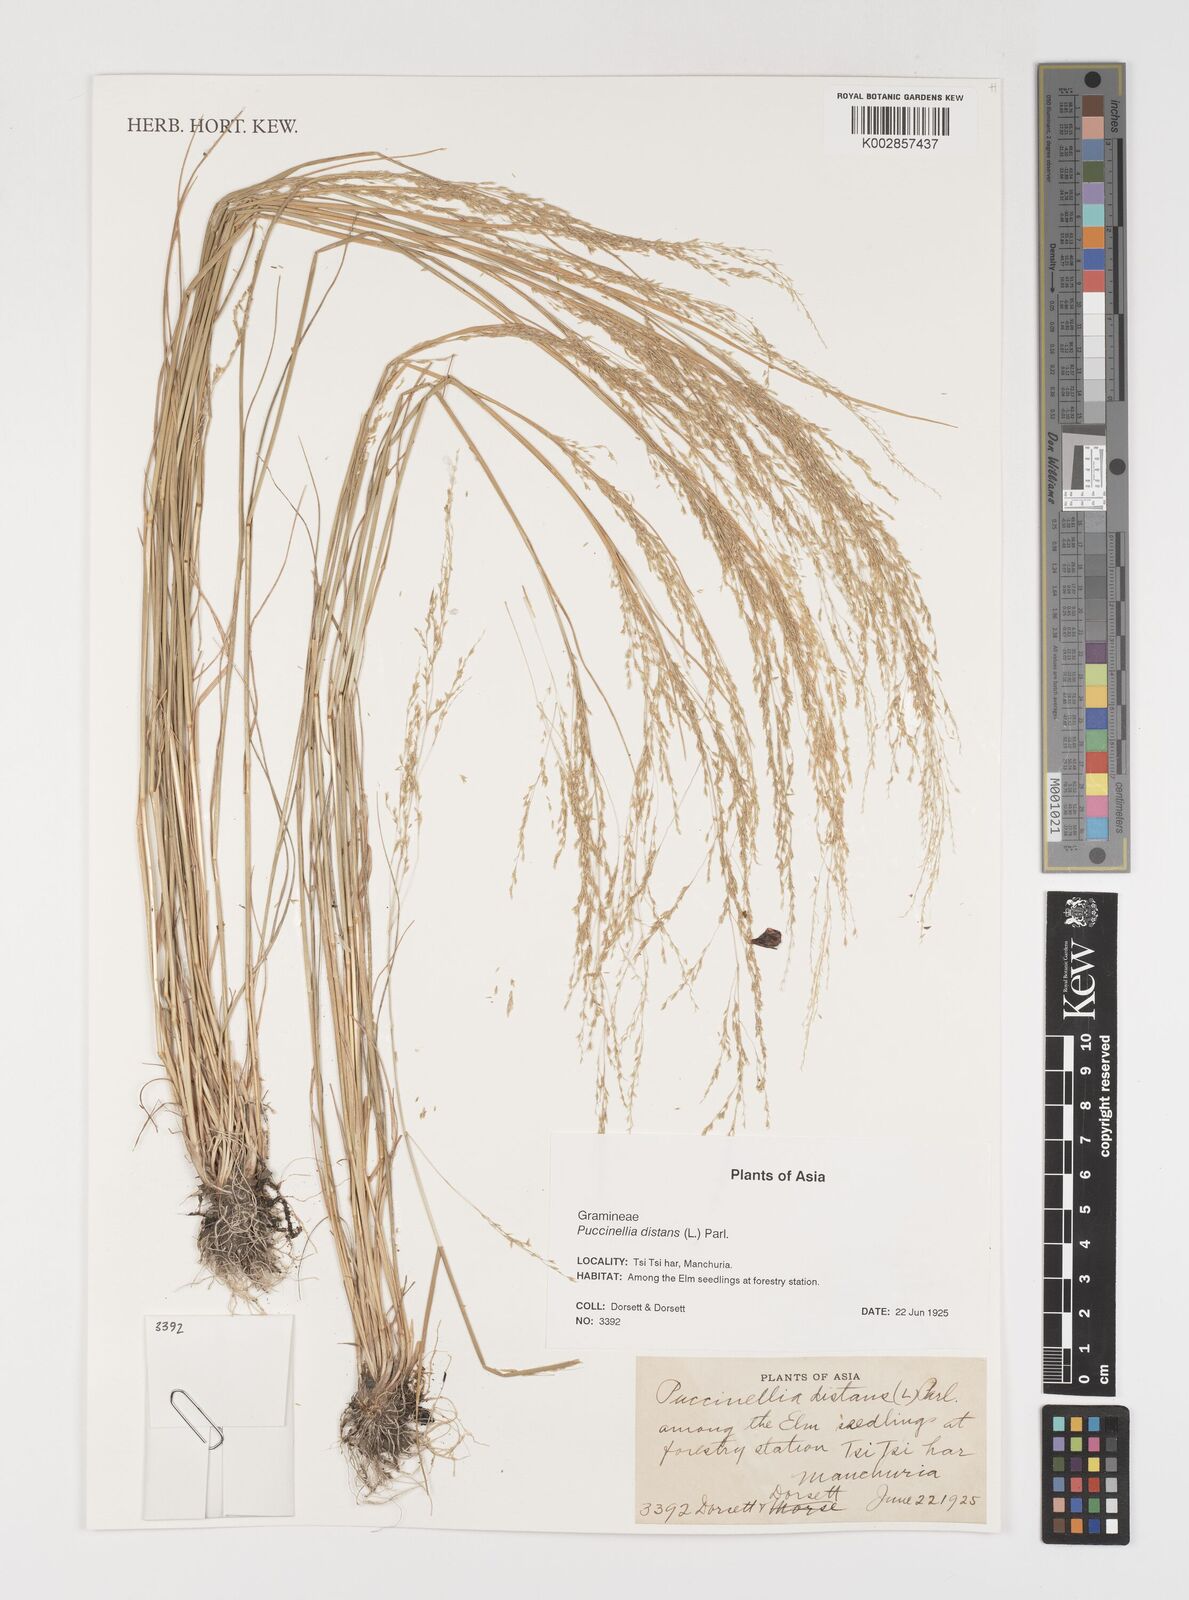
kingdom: Plantae
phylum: Tracheophyta
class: Liliopsida
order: Poales
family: Poaceae
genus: Puccinellia
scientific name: Puccinellia distans
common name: Weeping alkaligrass
